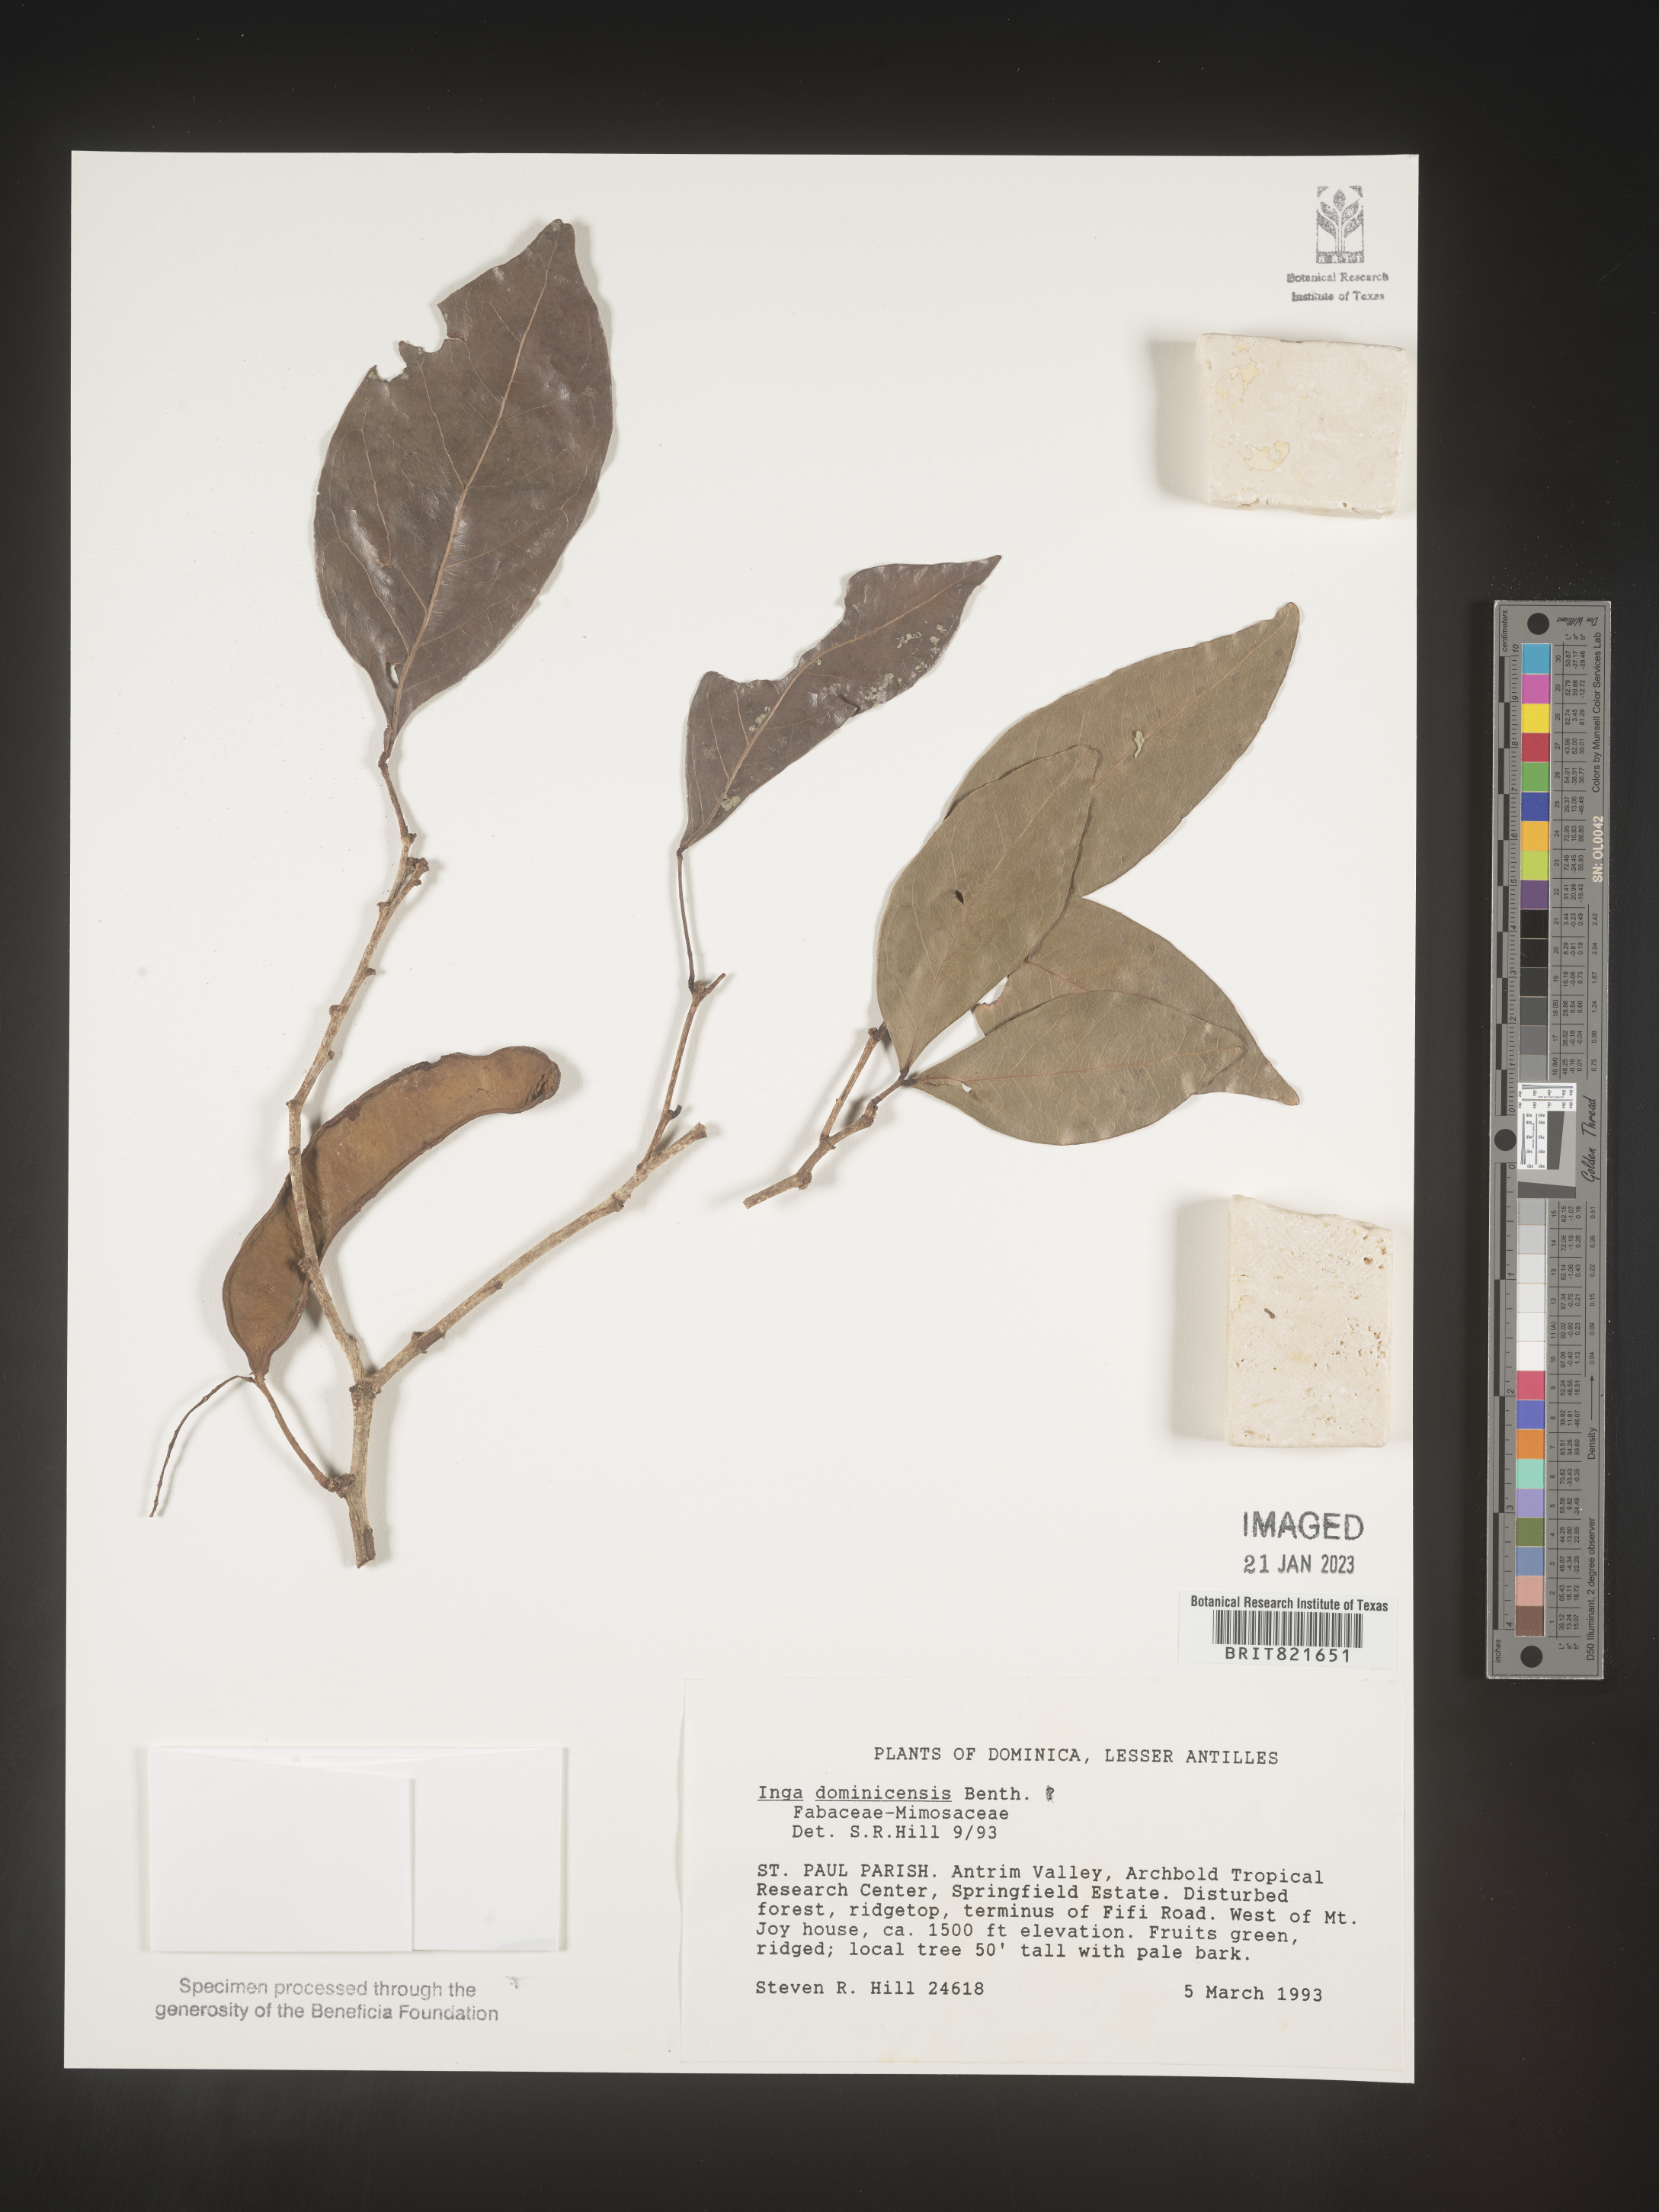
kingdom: Plantae
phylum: Tracheophyta
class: Magnoliopsida
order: Fabales
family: Fabaceae
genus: Inga
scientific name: Inga
